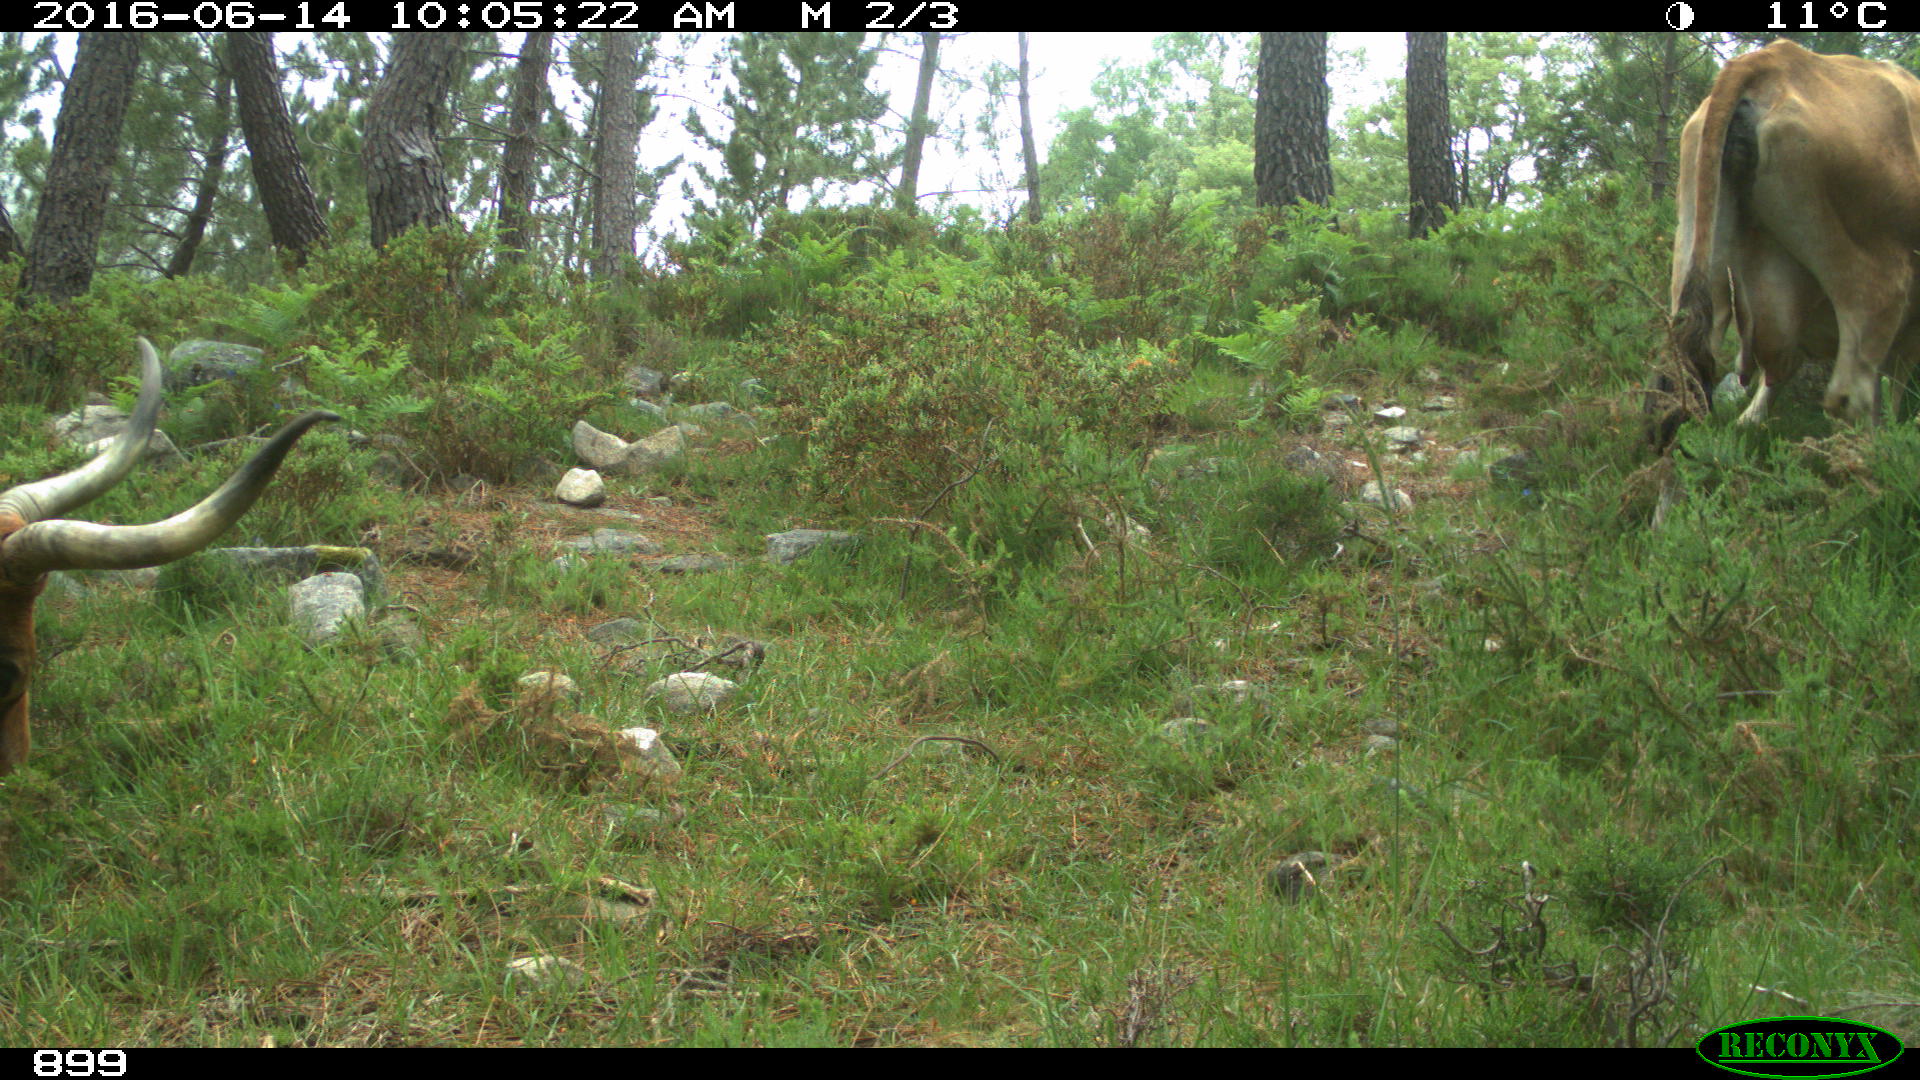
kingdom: Animalia
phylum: Chordata
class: Mammalia
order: Artiodactyla
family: Bovidae
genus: Bos
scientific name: Bos taurus
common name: Domesticated cattle
